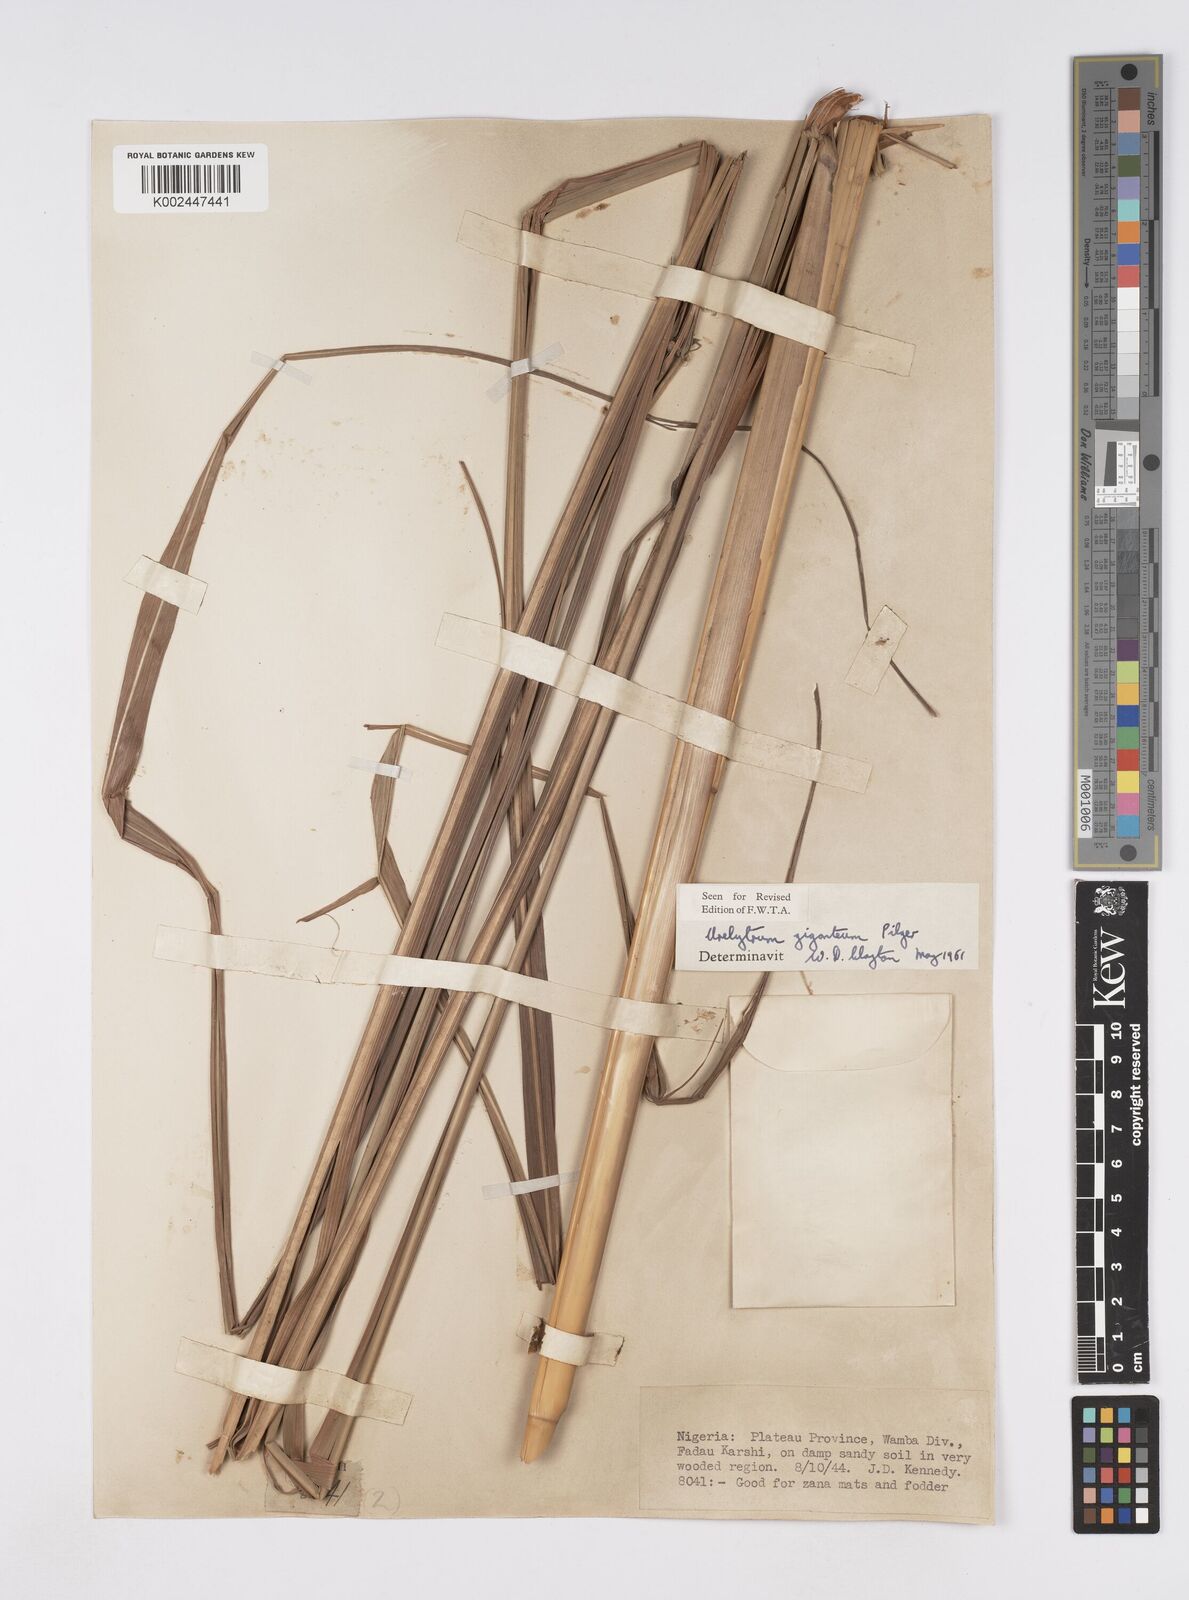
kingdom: Plantae
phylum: Tracheophyta
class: Liliopsida
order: Poales
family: Poaceae
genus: Urelytrum
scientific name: Urelytrum giganteum
